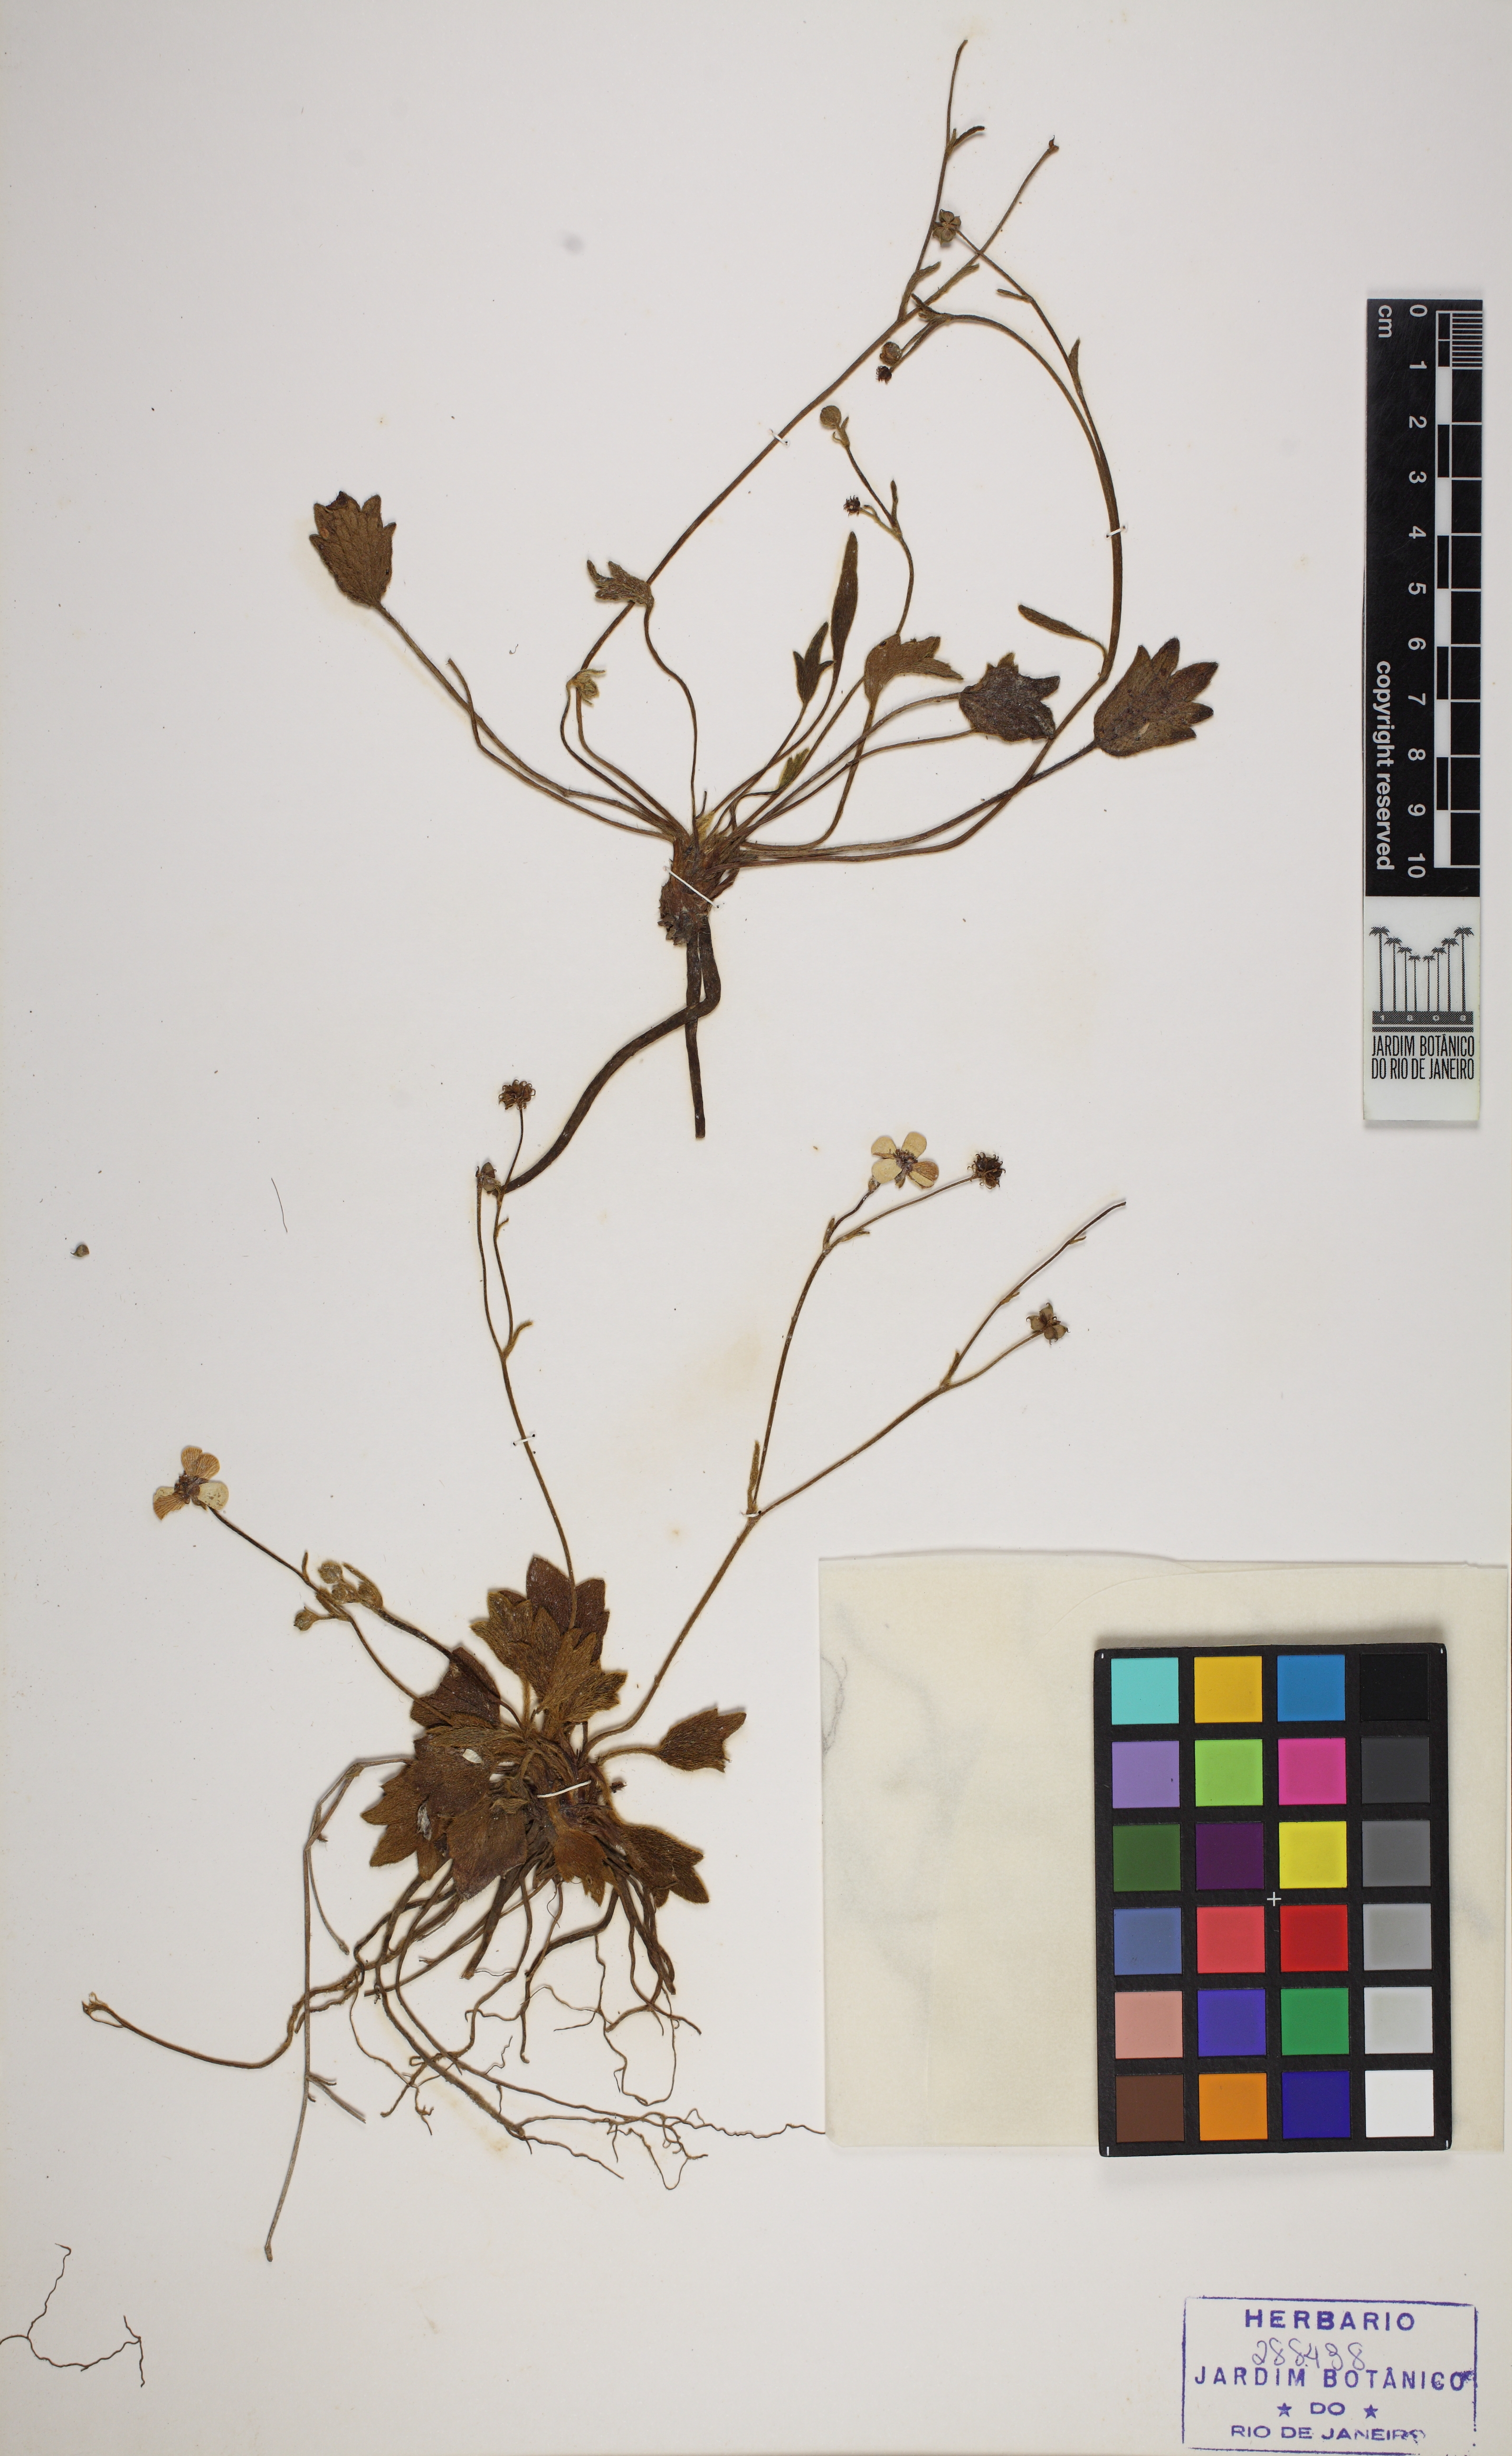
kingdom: Plantae
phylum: Tracheophyta
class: Magnoliopsida
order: Ranunculales
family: Ranunculaceae
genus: Ranunculus
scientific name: Ranunculus recurvatus
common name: Blisterwort
